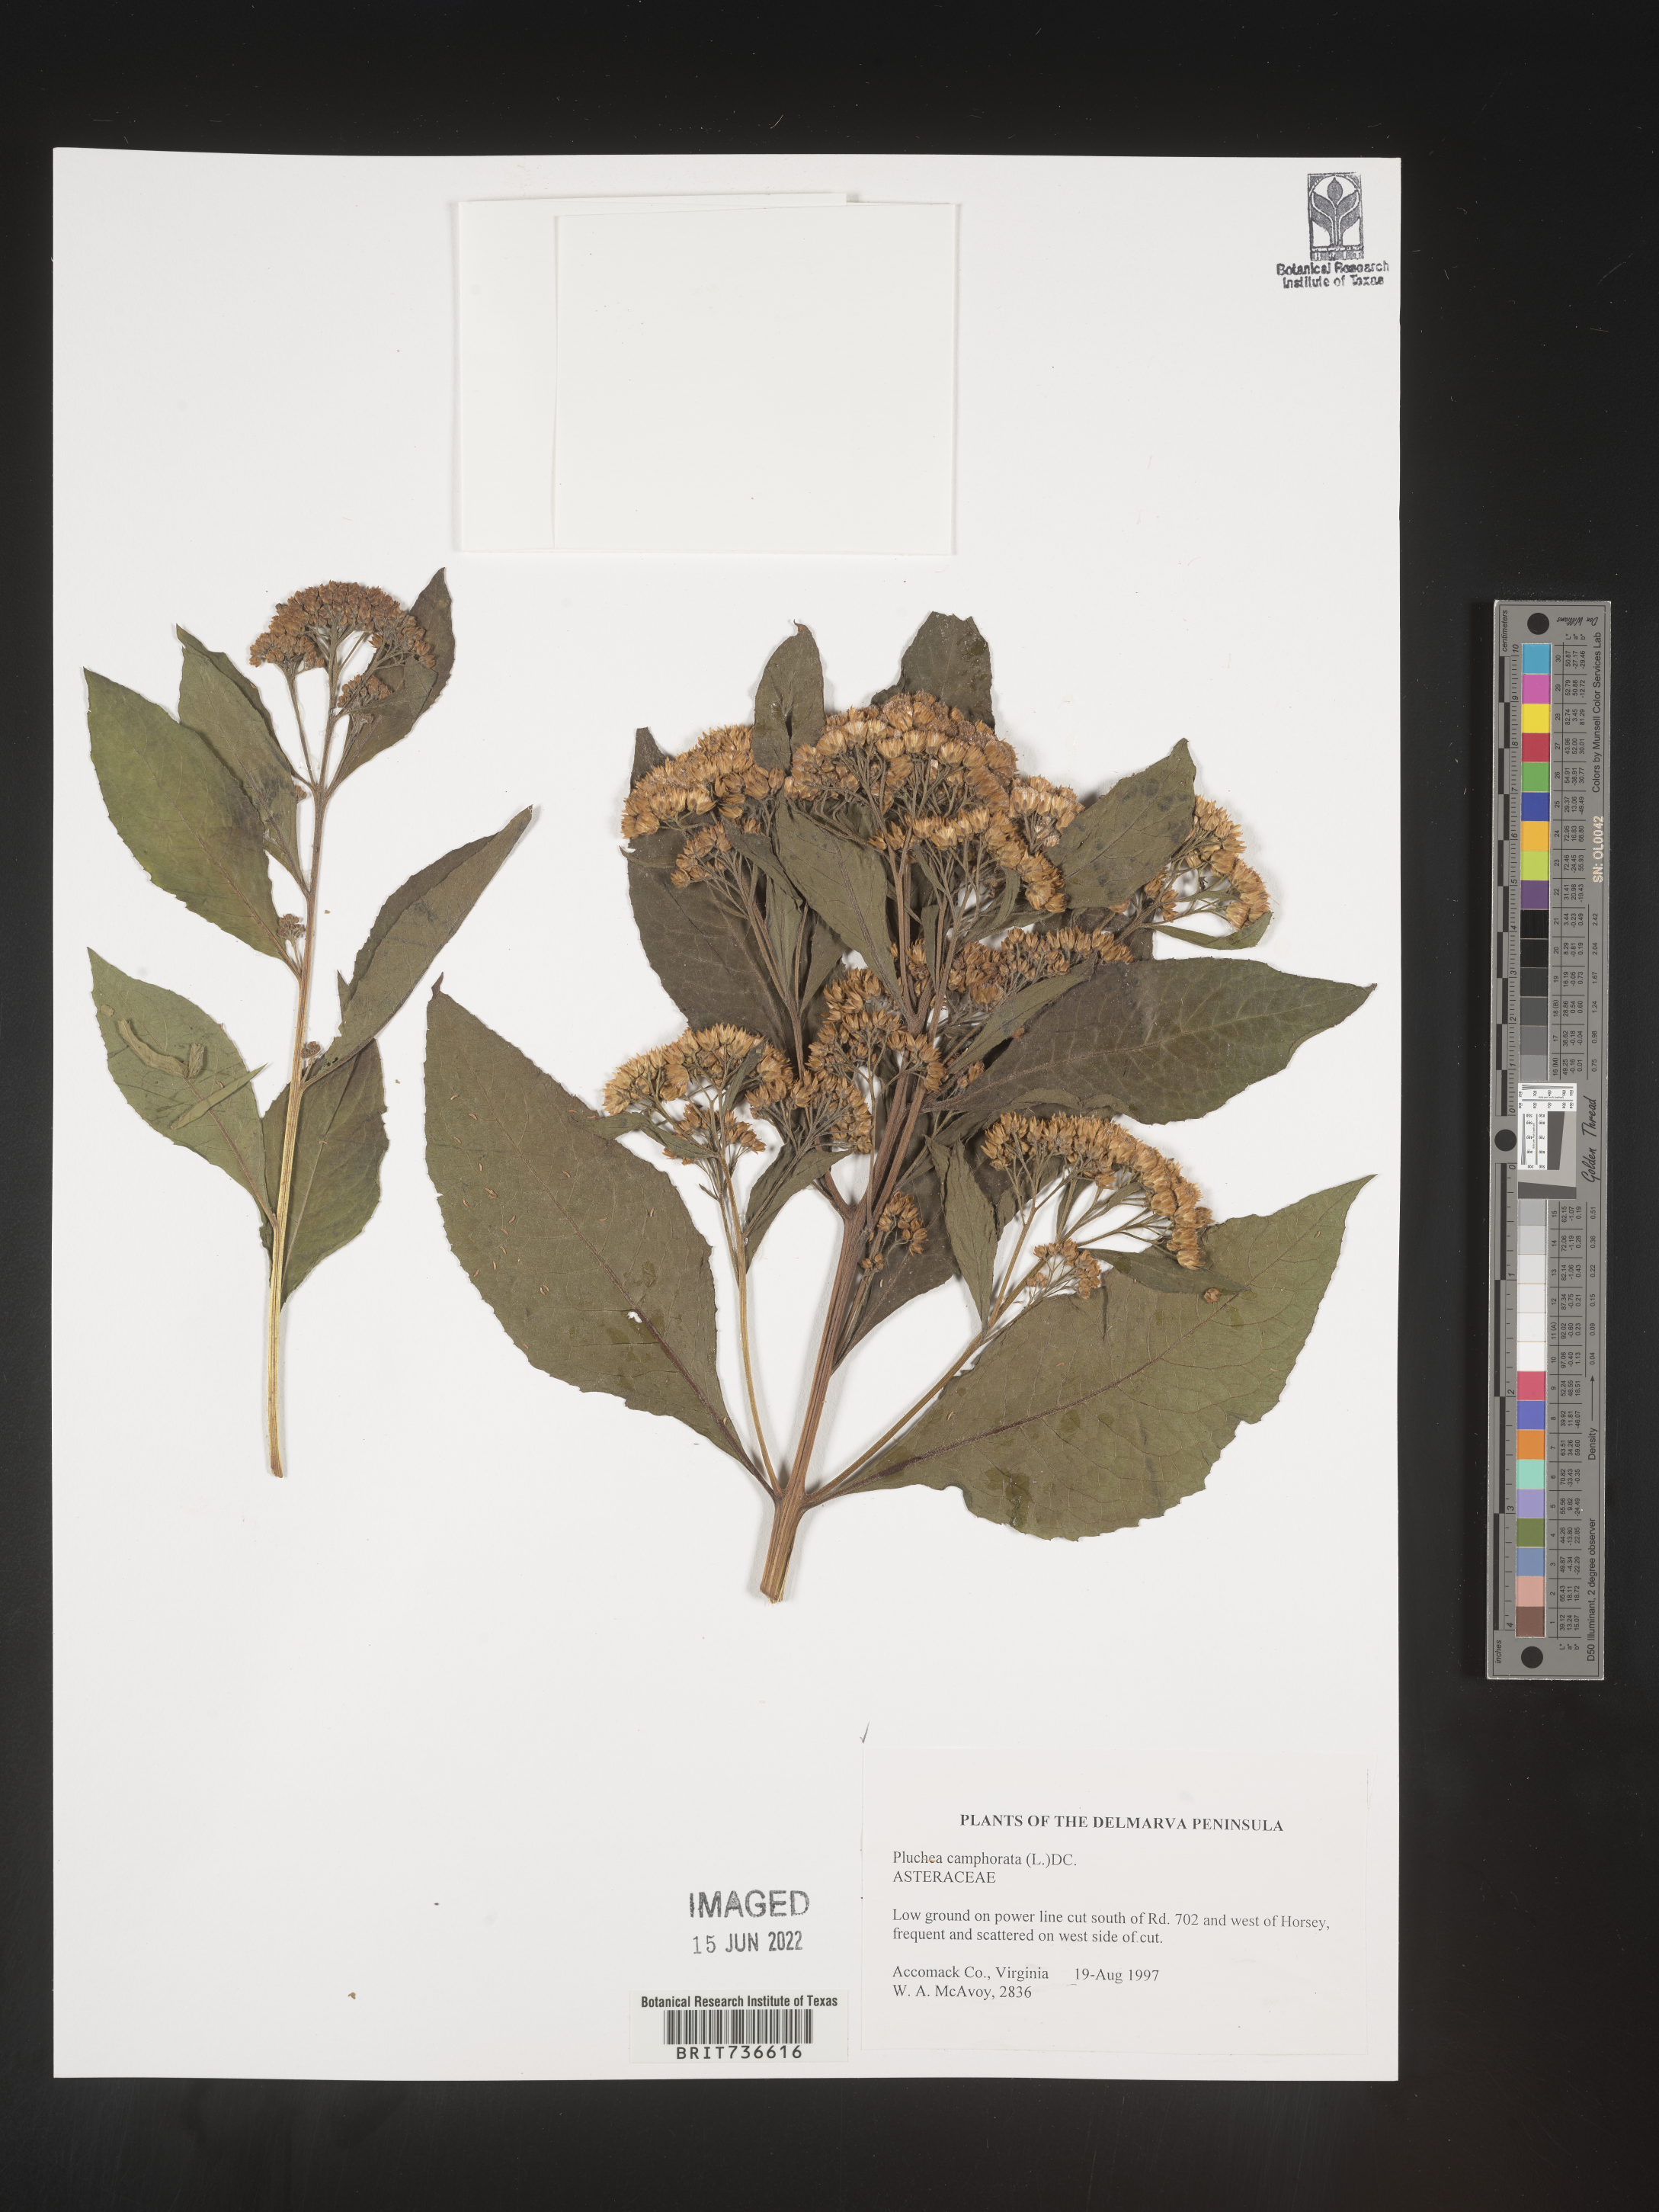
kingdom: Plantae
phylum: Tracheophyta
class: Magnoliopsida
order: Asterales
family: Asteraceae
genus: Pluchea
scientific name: Pluchea camphorata
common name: Camphor pluchea
